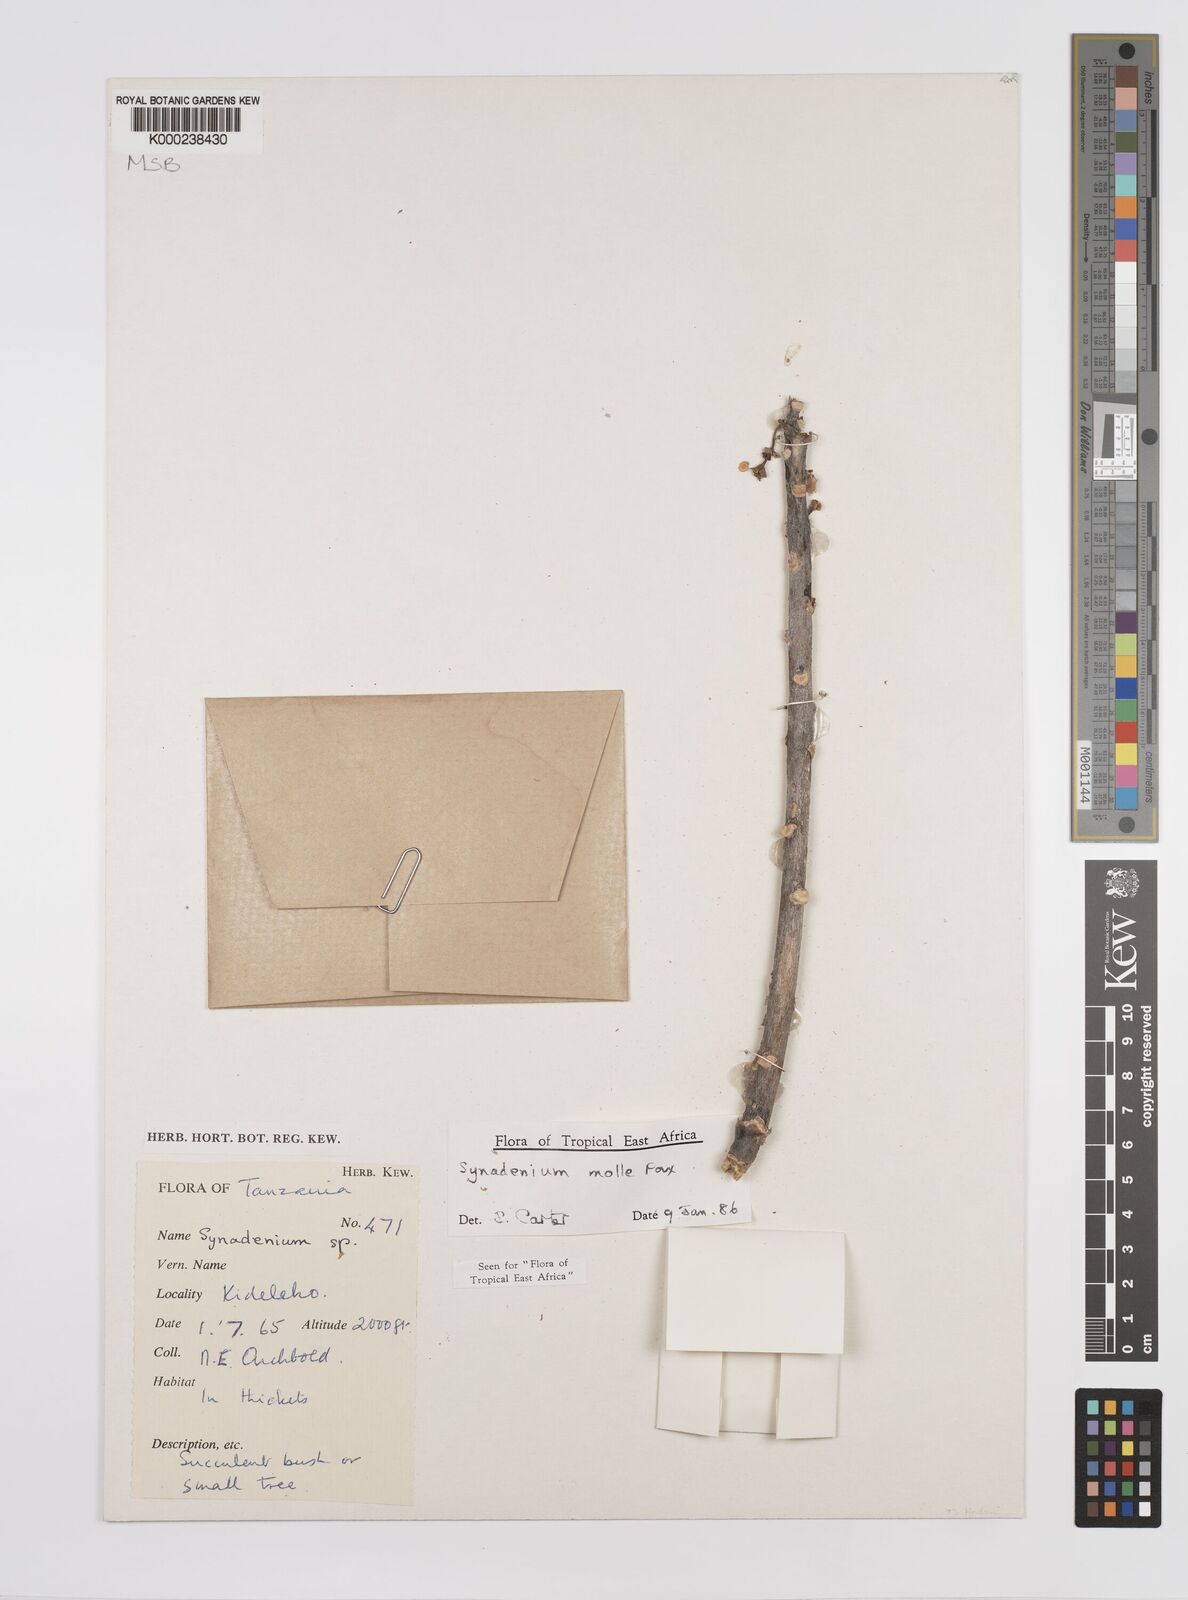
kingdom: Plantae
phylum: Tracheophyta
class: Magnoliopsida
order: Malpighiales
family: Euphorbiaceae
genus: Euphorbia
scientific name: Euphorbia pseudomollis
